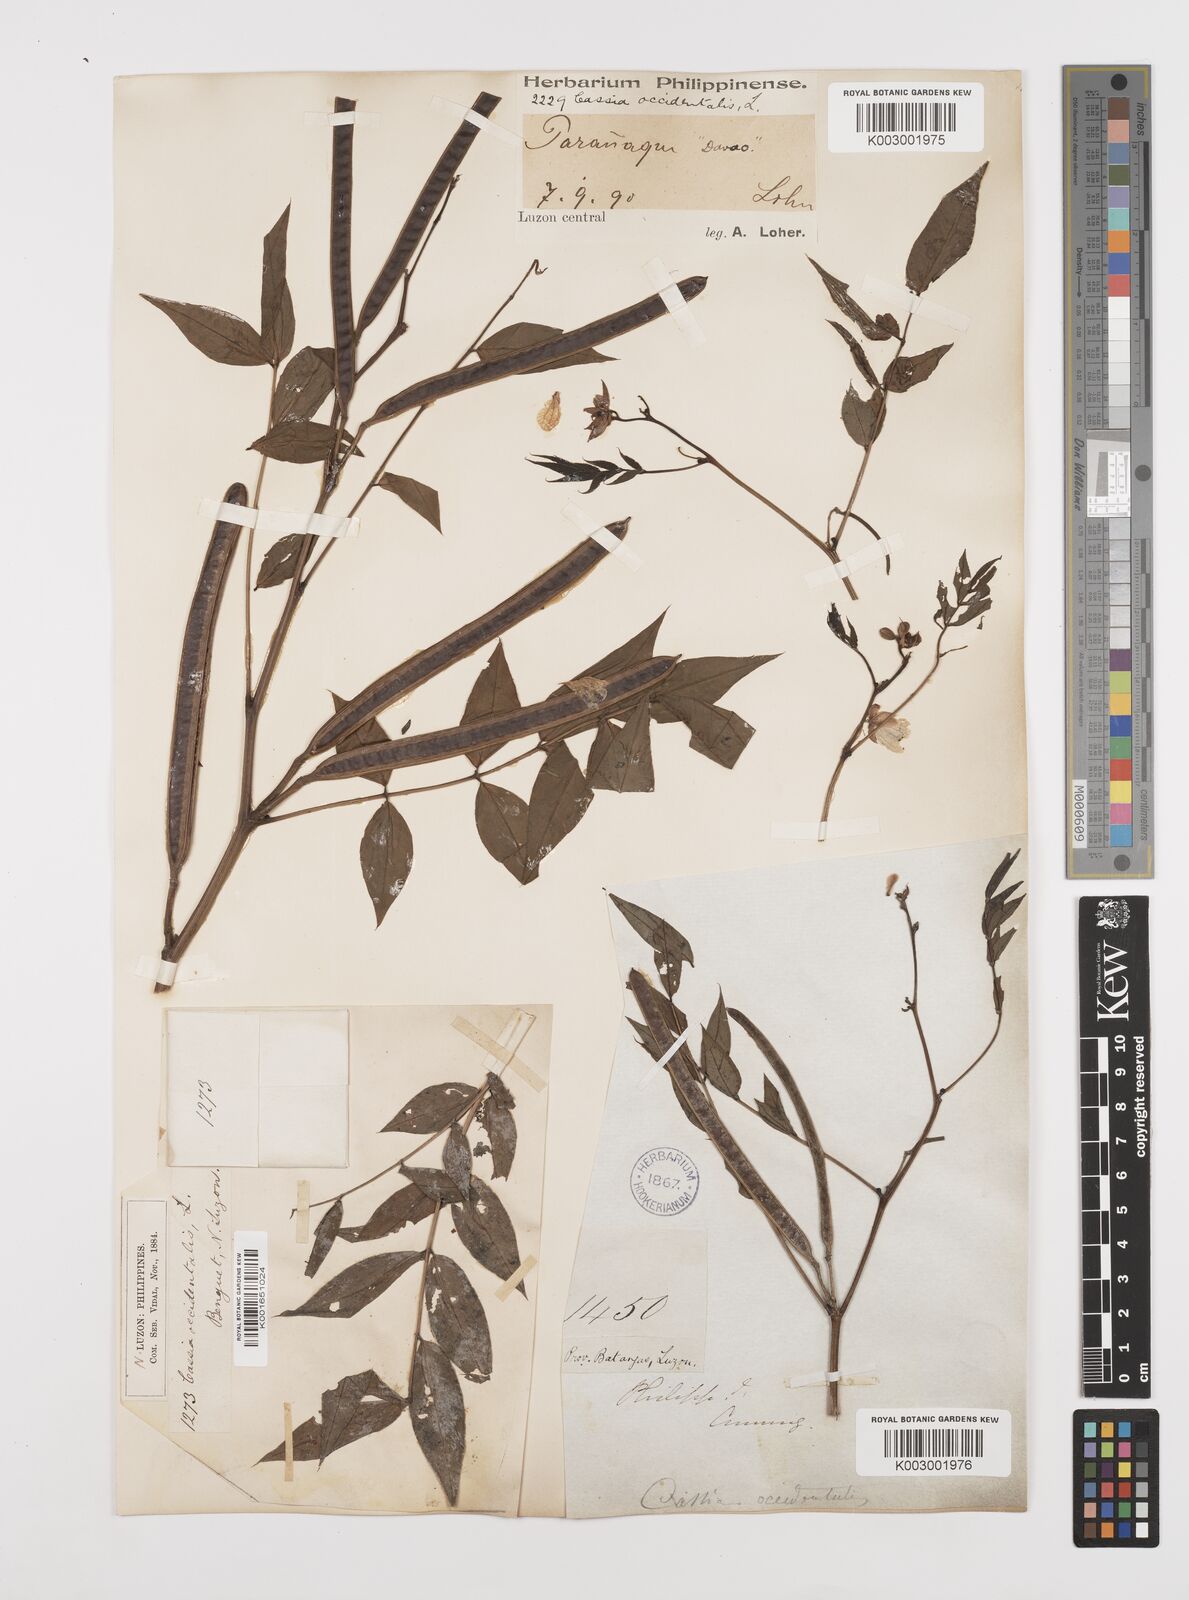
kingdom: Plantae
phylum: Tracheophyta
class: Magnoliopsida
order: Fabales
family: Fabaceae
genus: Senna
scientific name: Senna occidentalis
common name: Septicweed
